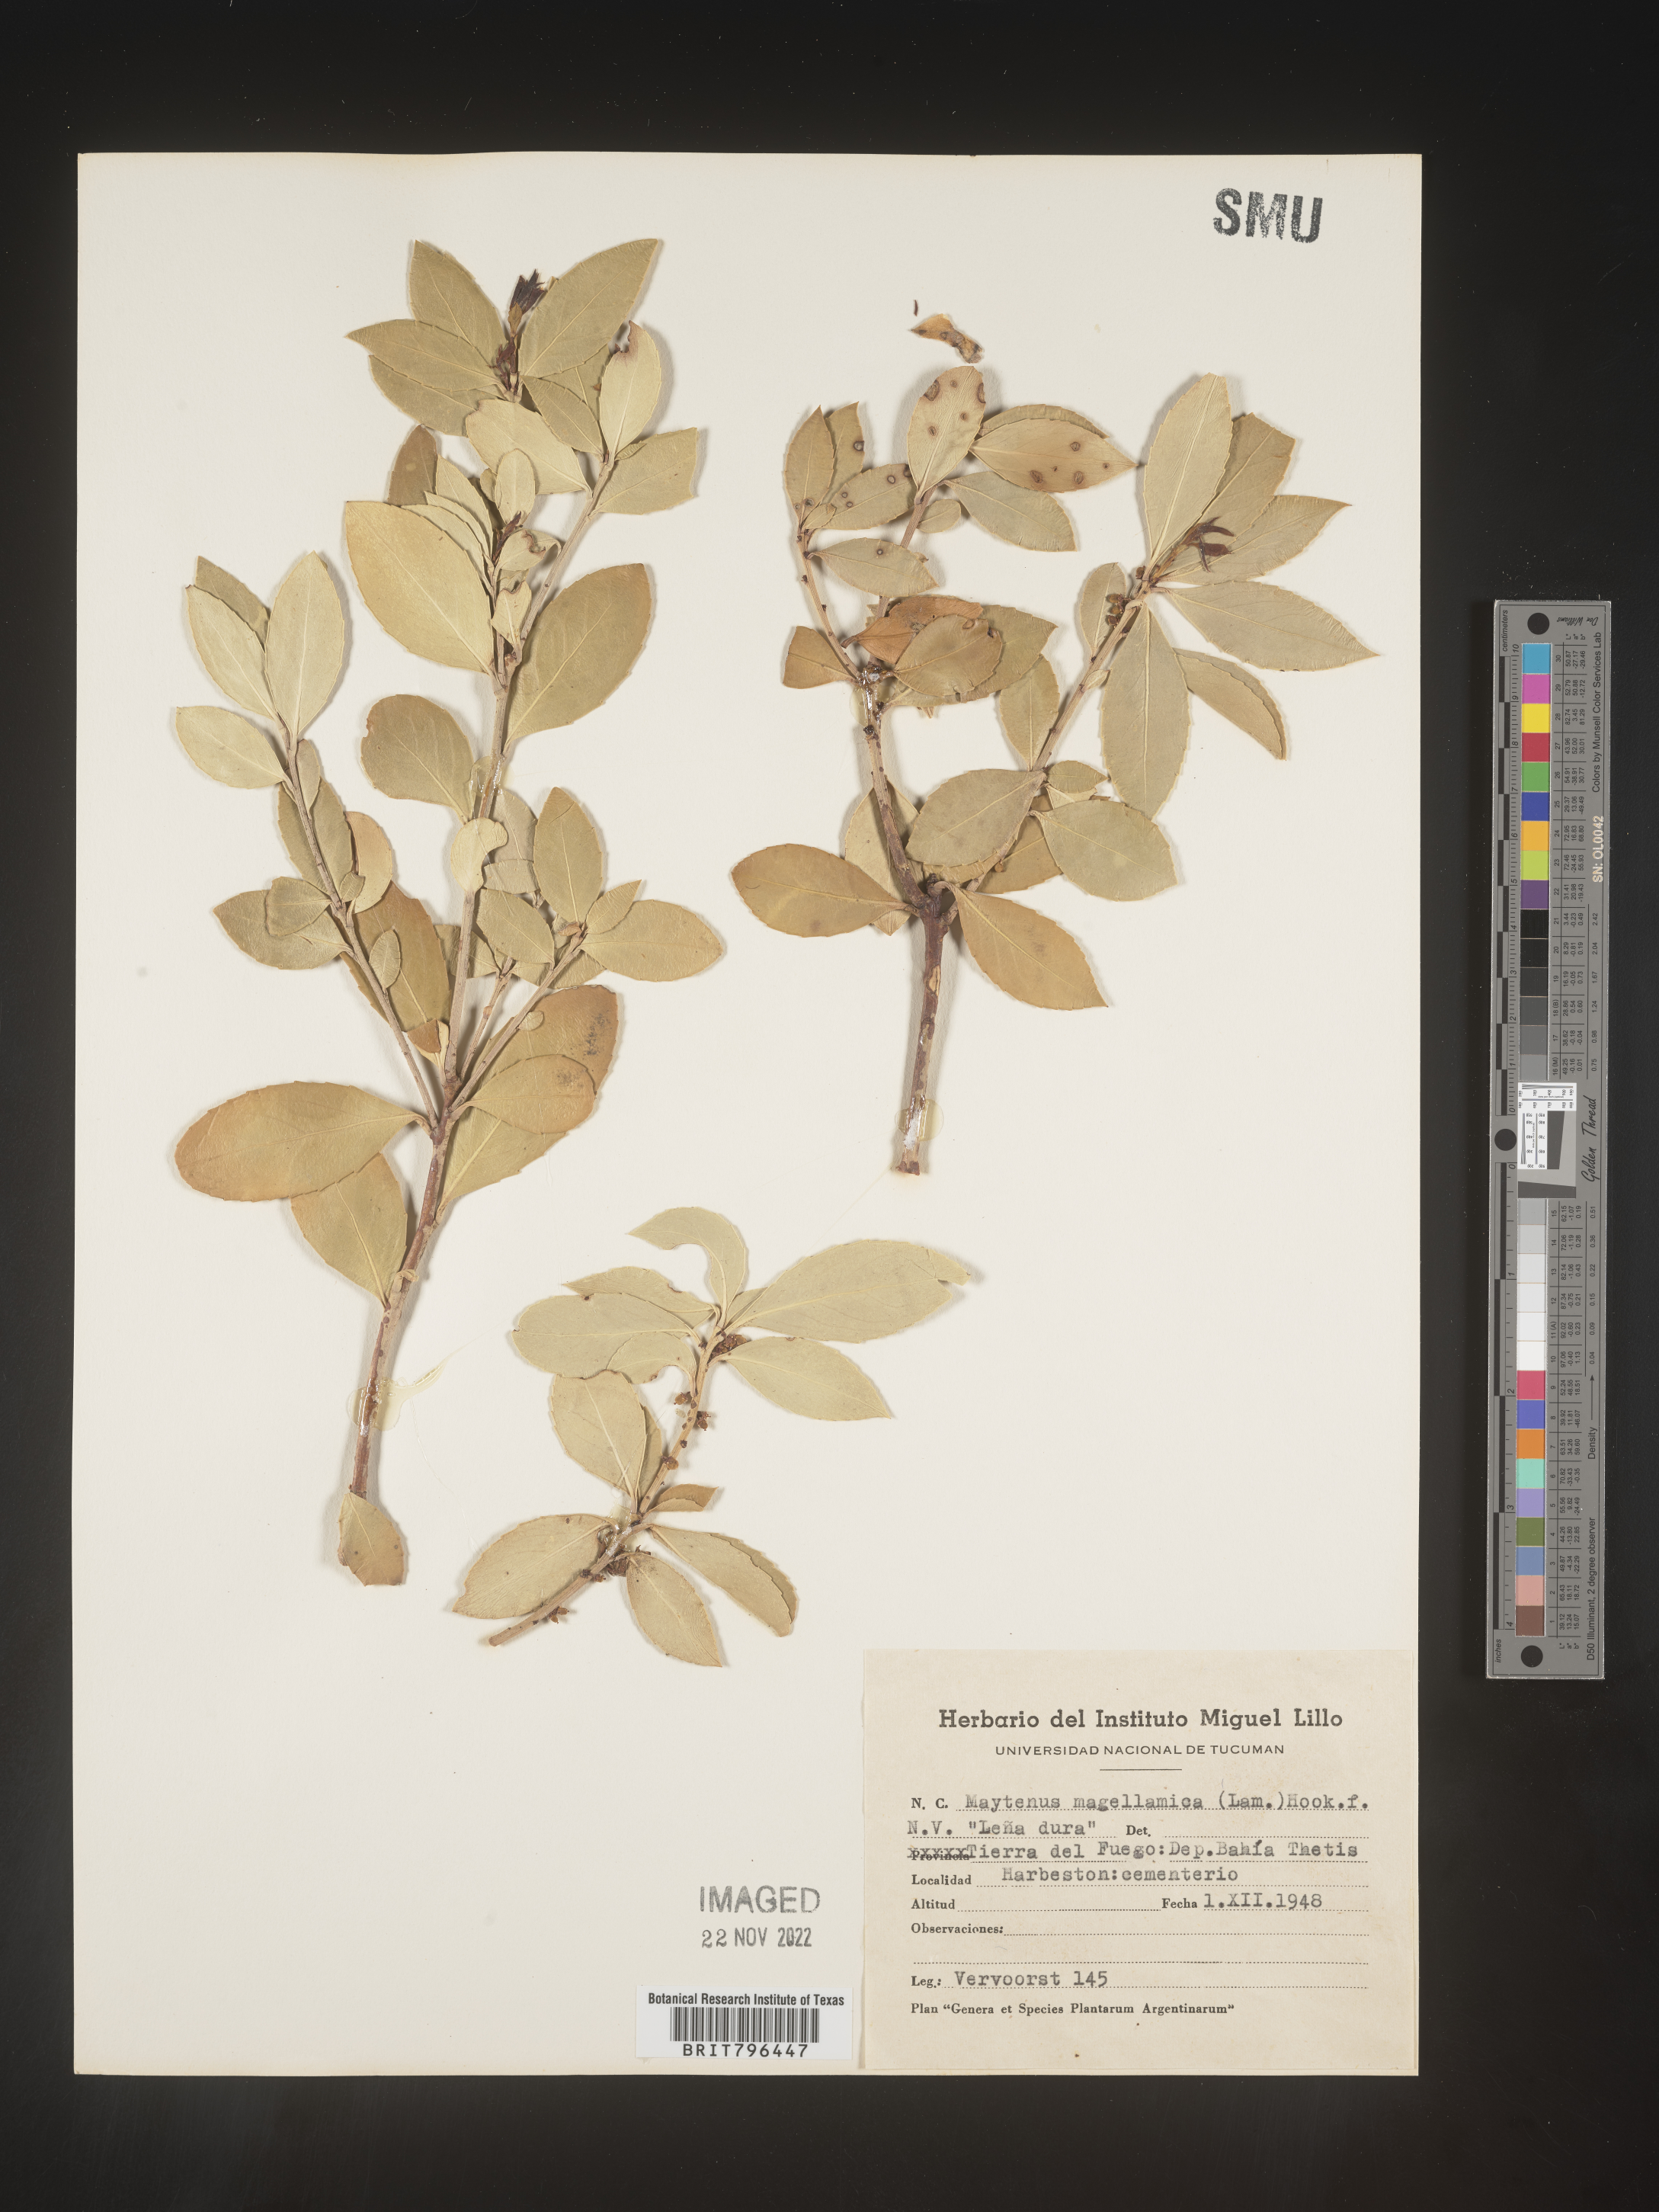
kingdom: Plantae
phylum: Tracheophyta
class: Magnoliopsida
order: Celastrales
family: Celastraceae
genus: Maytenus
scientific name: Maytenus
